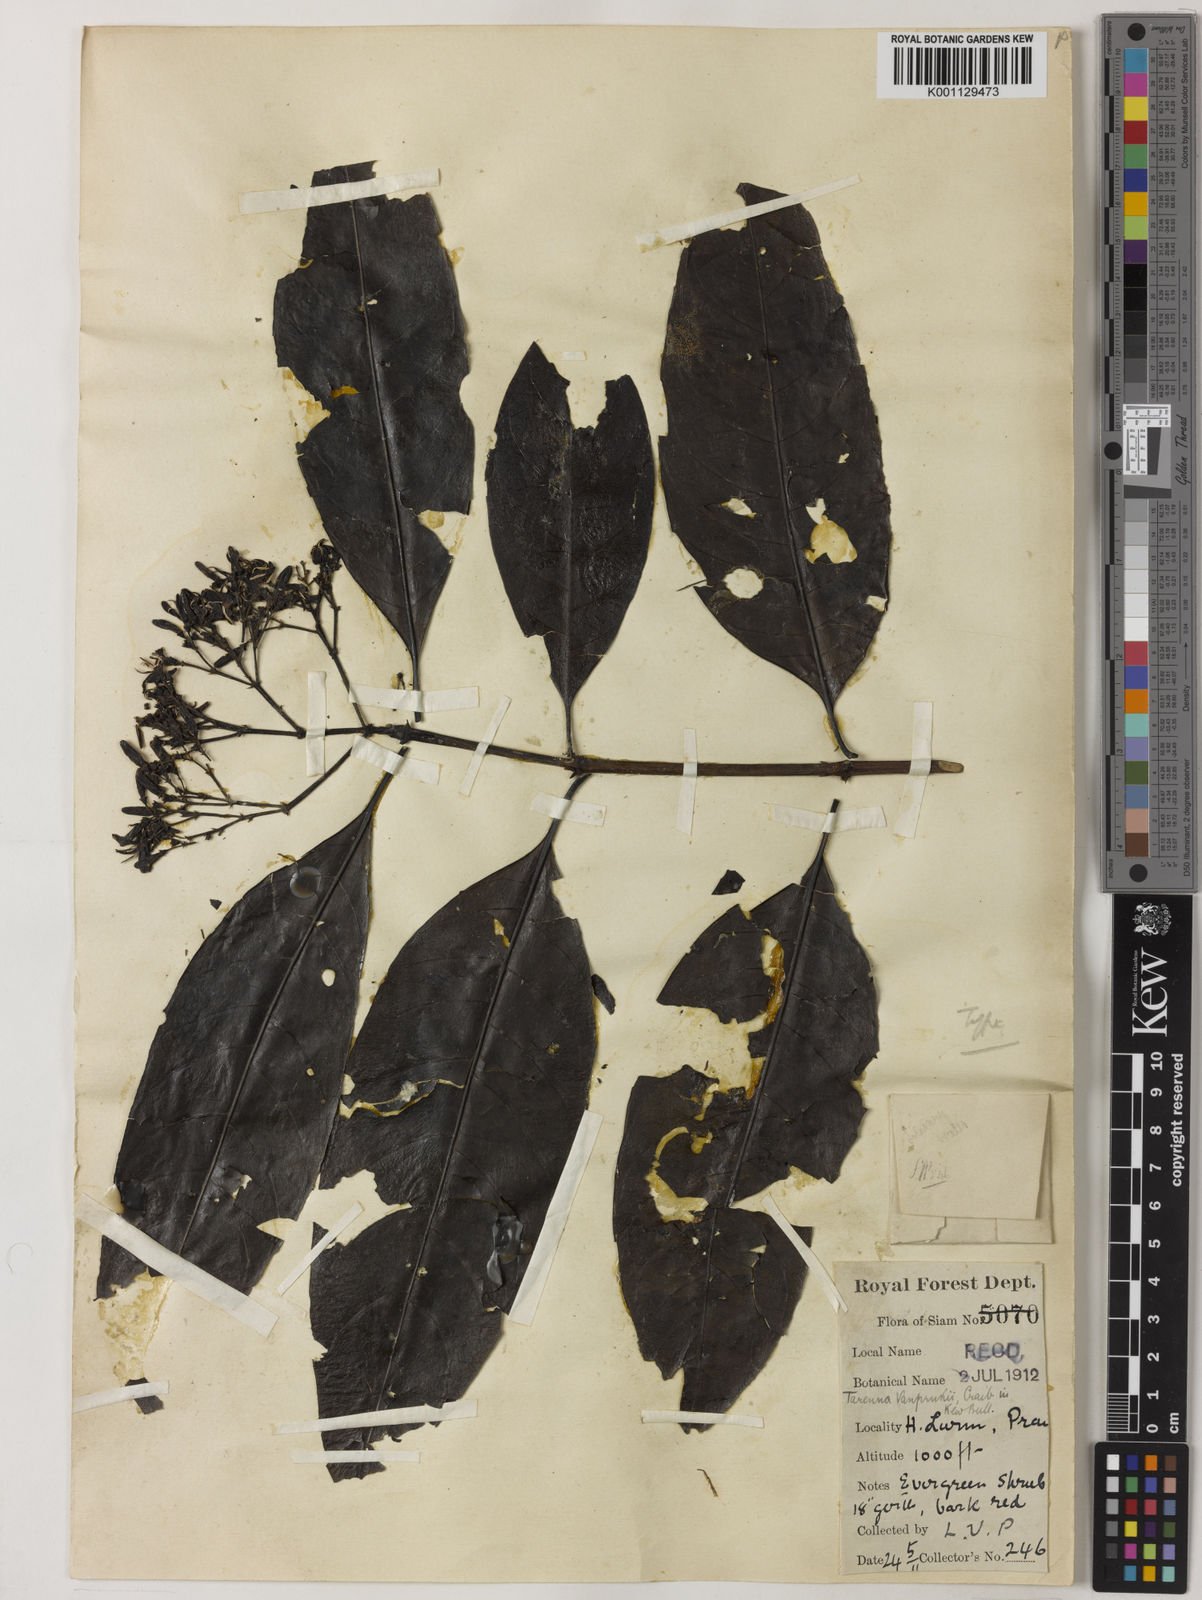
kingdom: Plantae
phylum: Tracheophyta
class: Magnoliopsida
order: Gentianales
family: Rubiaceae
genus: Tarenna
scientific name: Tarenna vanprukii
